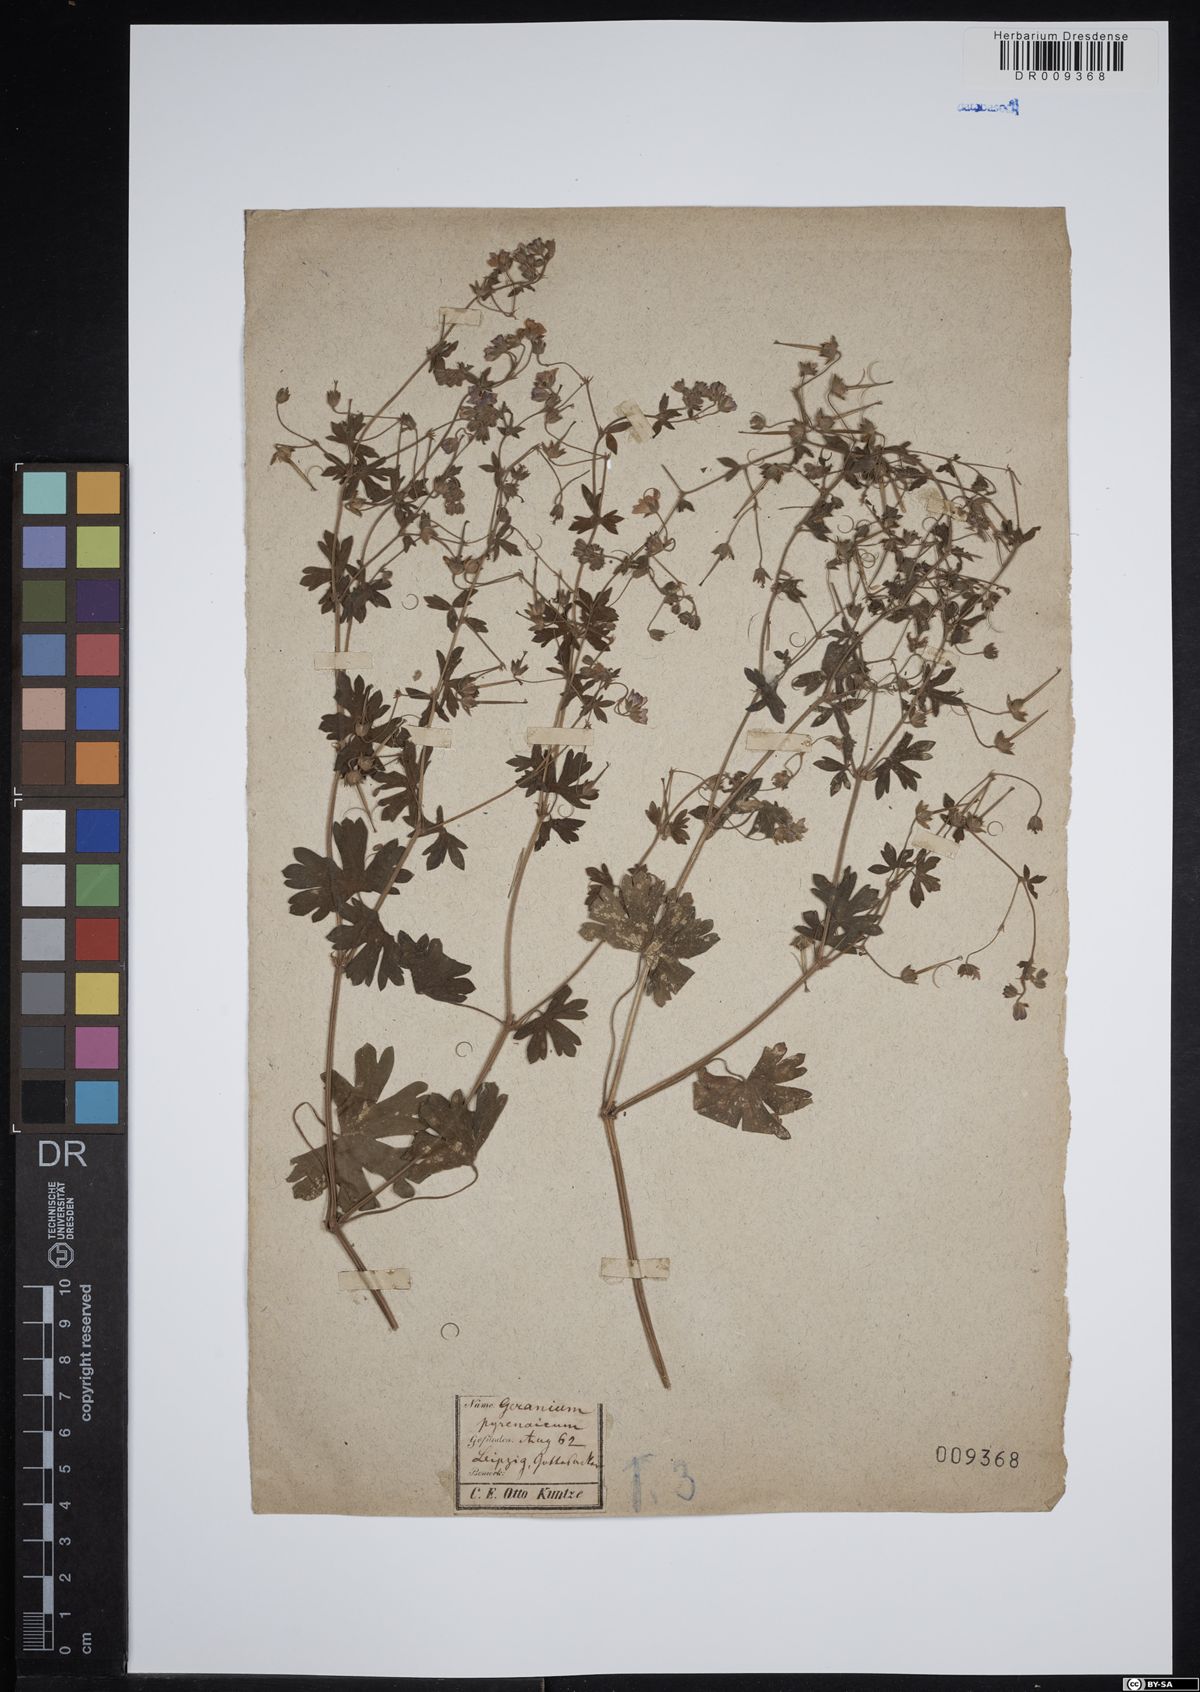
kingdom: Plantae
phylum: Tracheophyta
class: Magnoliopsida
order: Geraniales
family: Geraniaceae
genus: Geranium
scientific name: Geranium pyrenaicum
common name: Hedgerow crane's-bill
